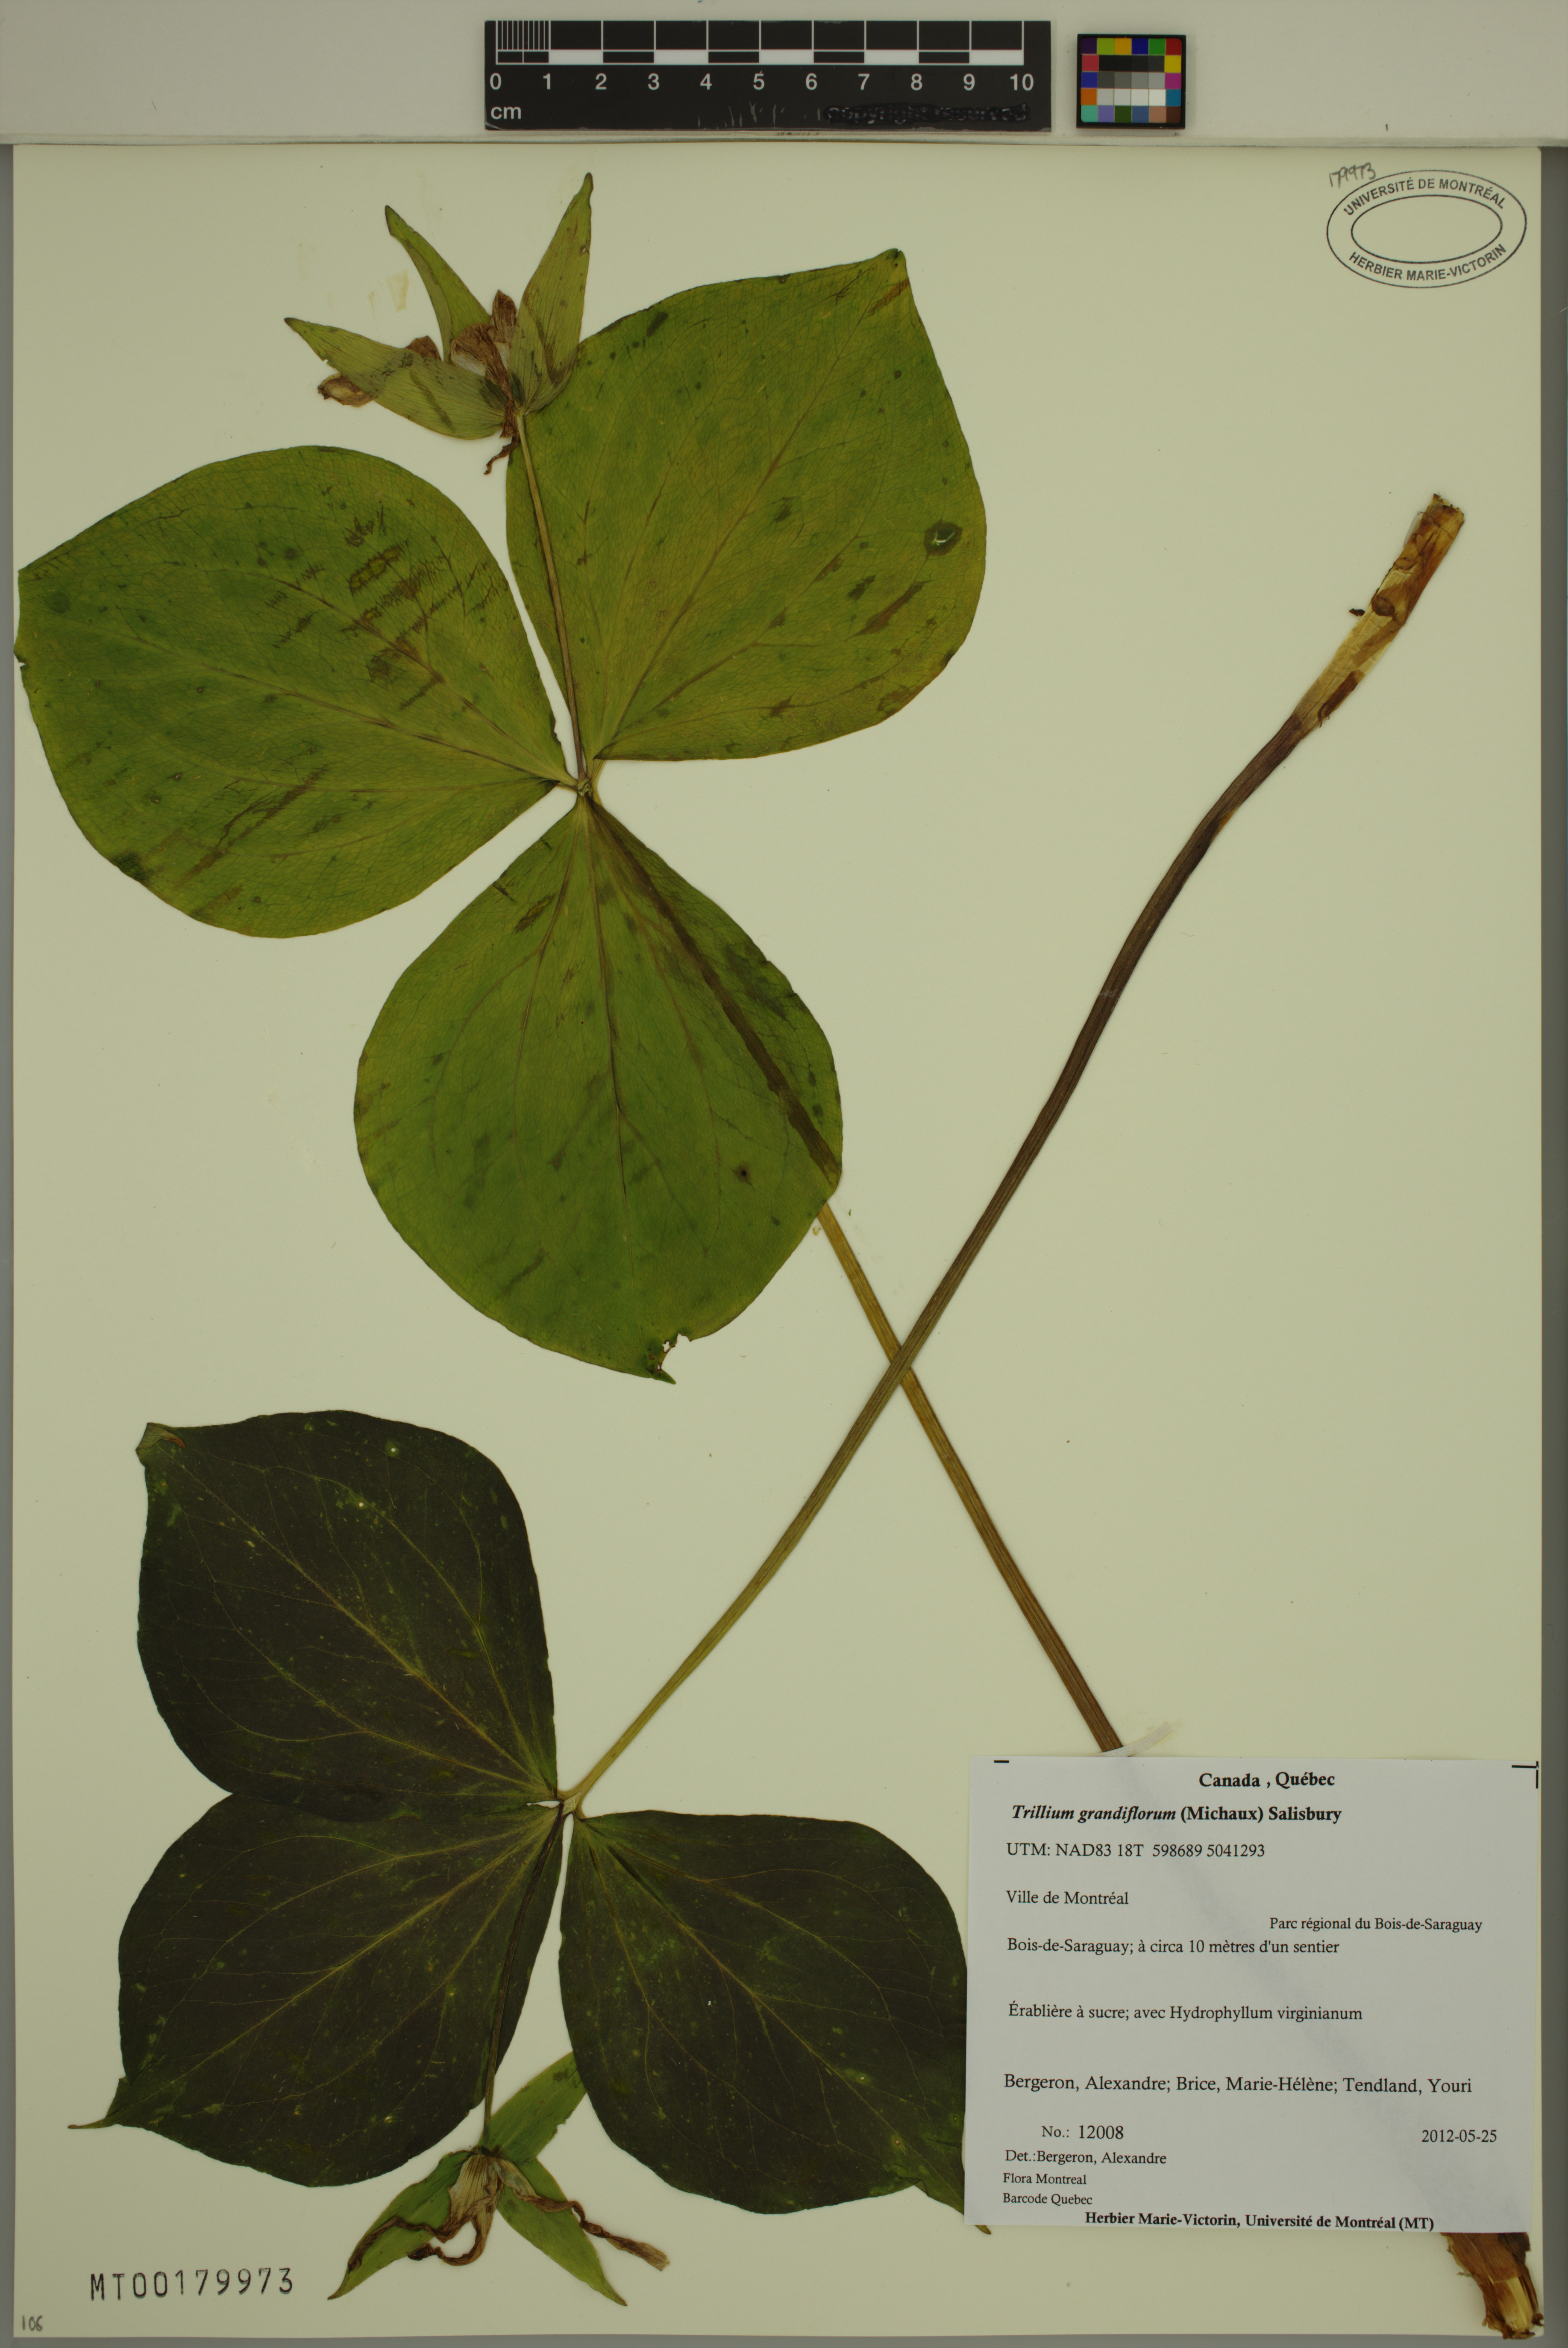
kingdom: Plantae
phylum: Tracheophyta
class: Liliopsida
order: Liliales
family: Melanthiaceae
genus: Trillium
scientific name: Trillium grandiflorum
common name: Great white trillium
